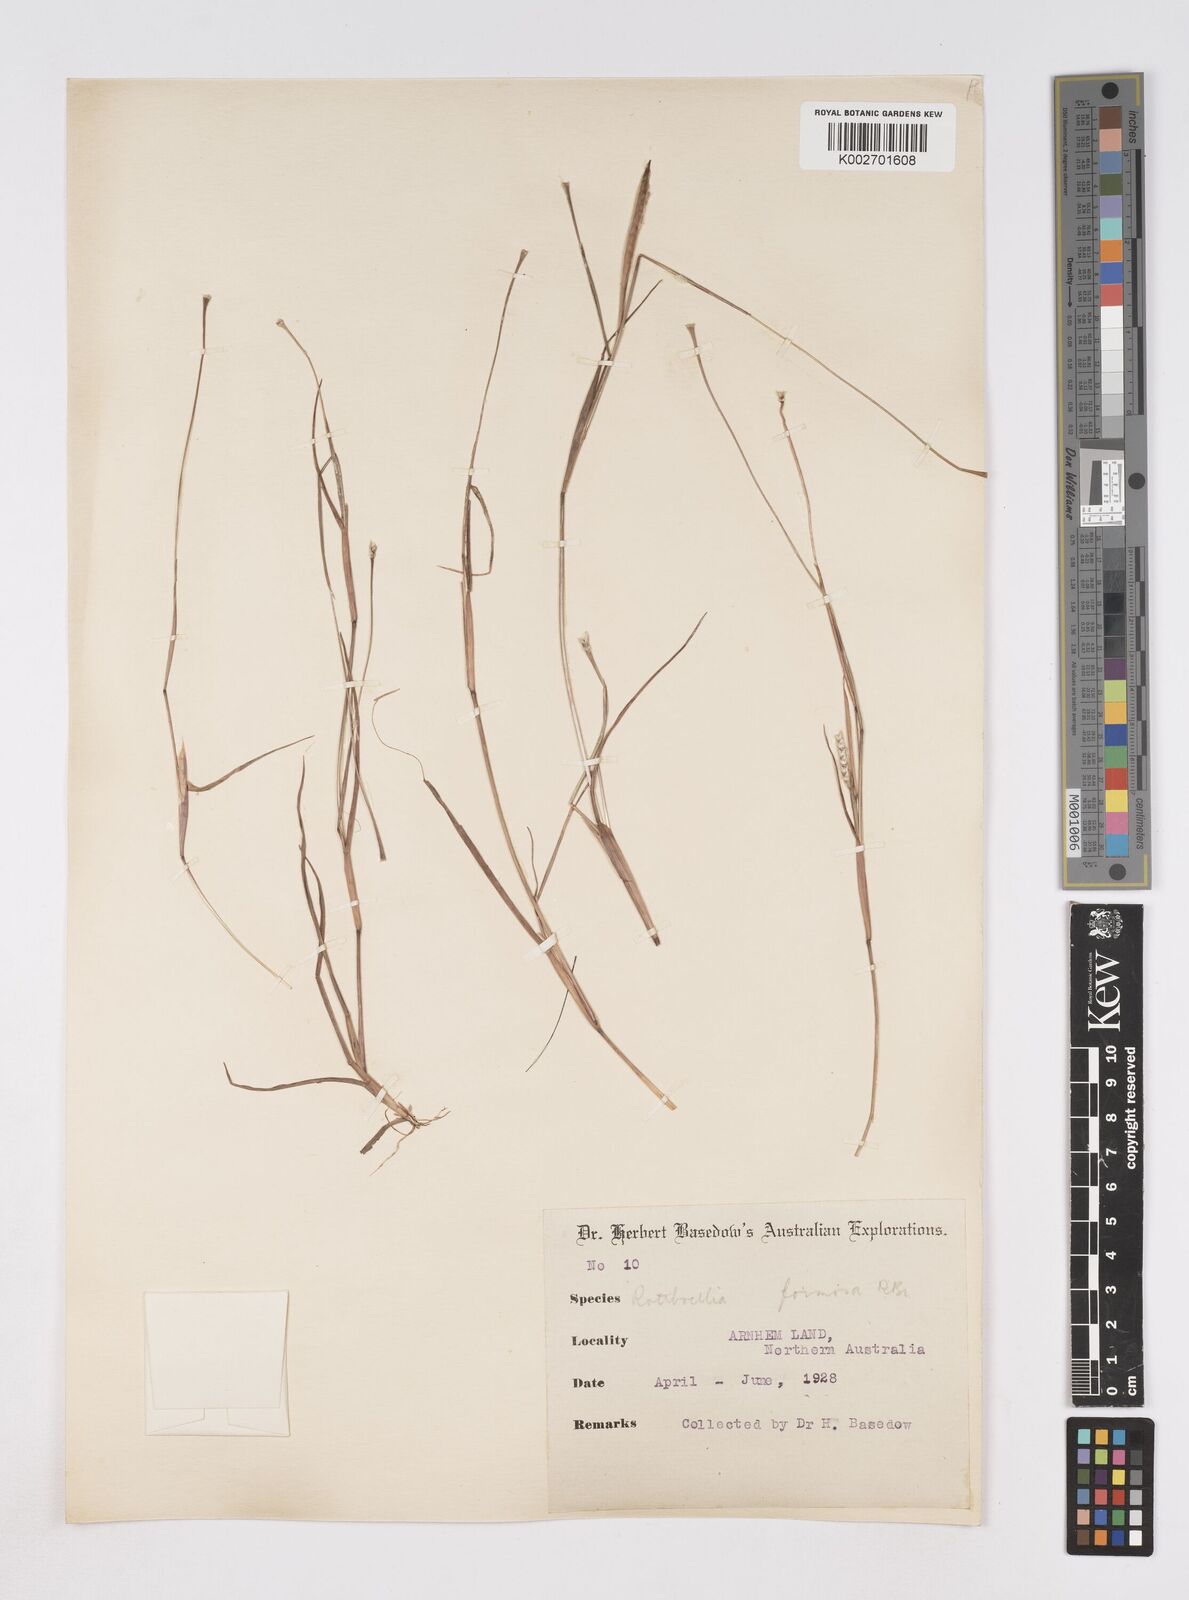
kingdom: Plantae
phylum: Tracheophyta
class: Liliopsida
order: Poales
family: Poaceae
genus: Heteropholis
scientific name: Heteropholis
